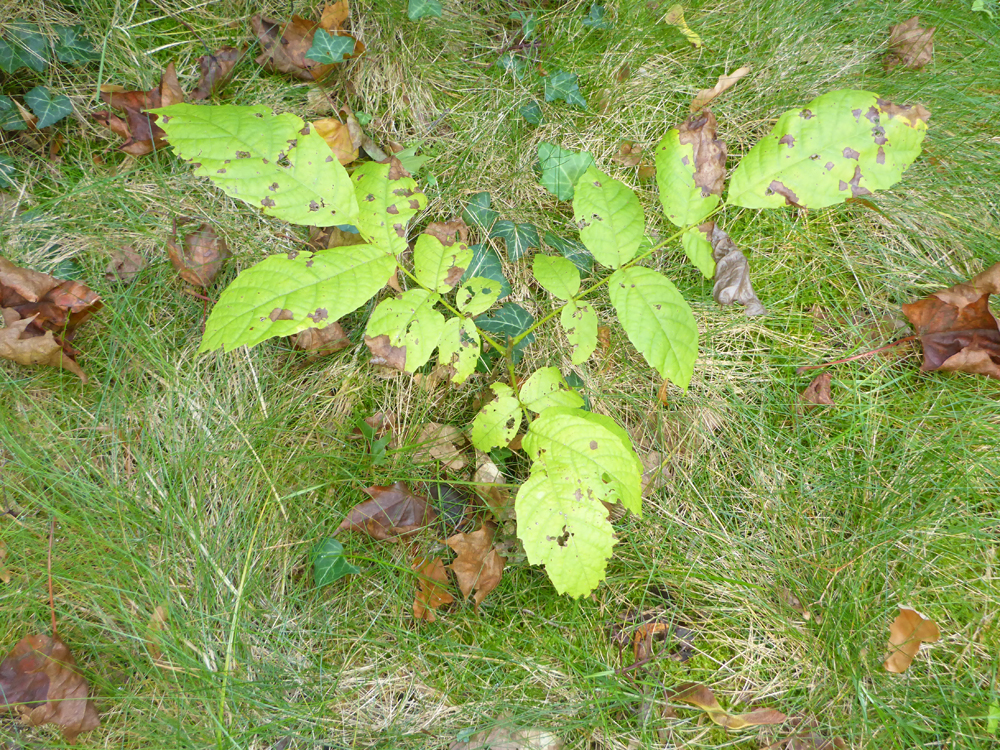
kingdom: Plantae
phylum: Tracheophyta
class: Magnoliopsida
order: Fagales
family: Juglandaceae
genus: Juglans
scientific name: Juglans regia
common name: Walnut
